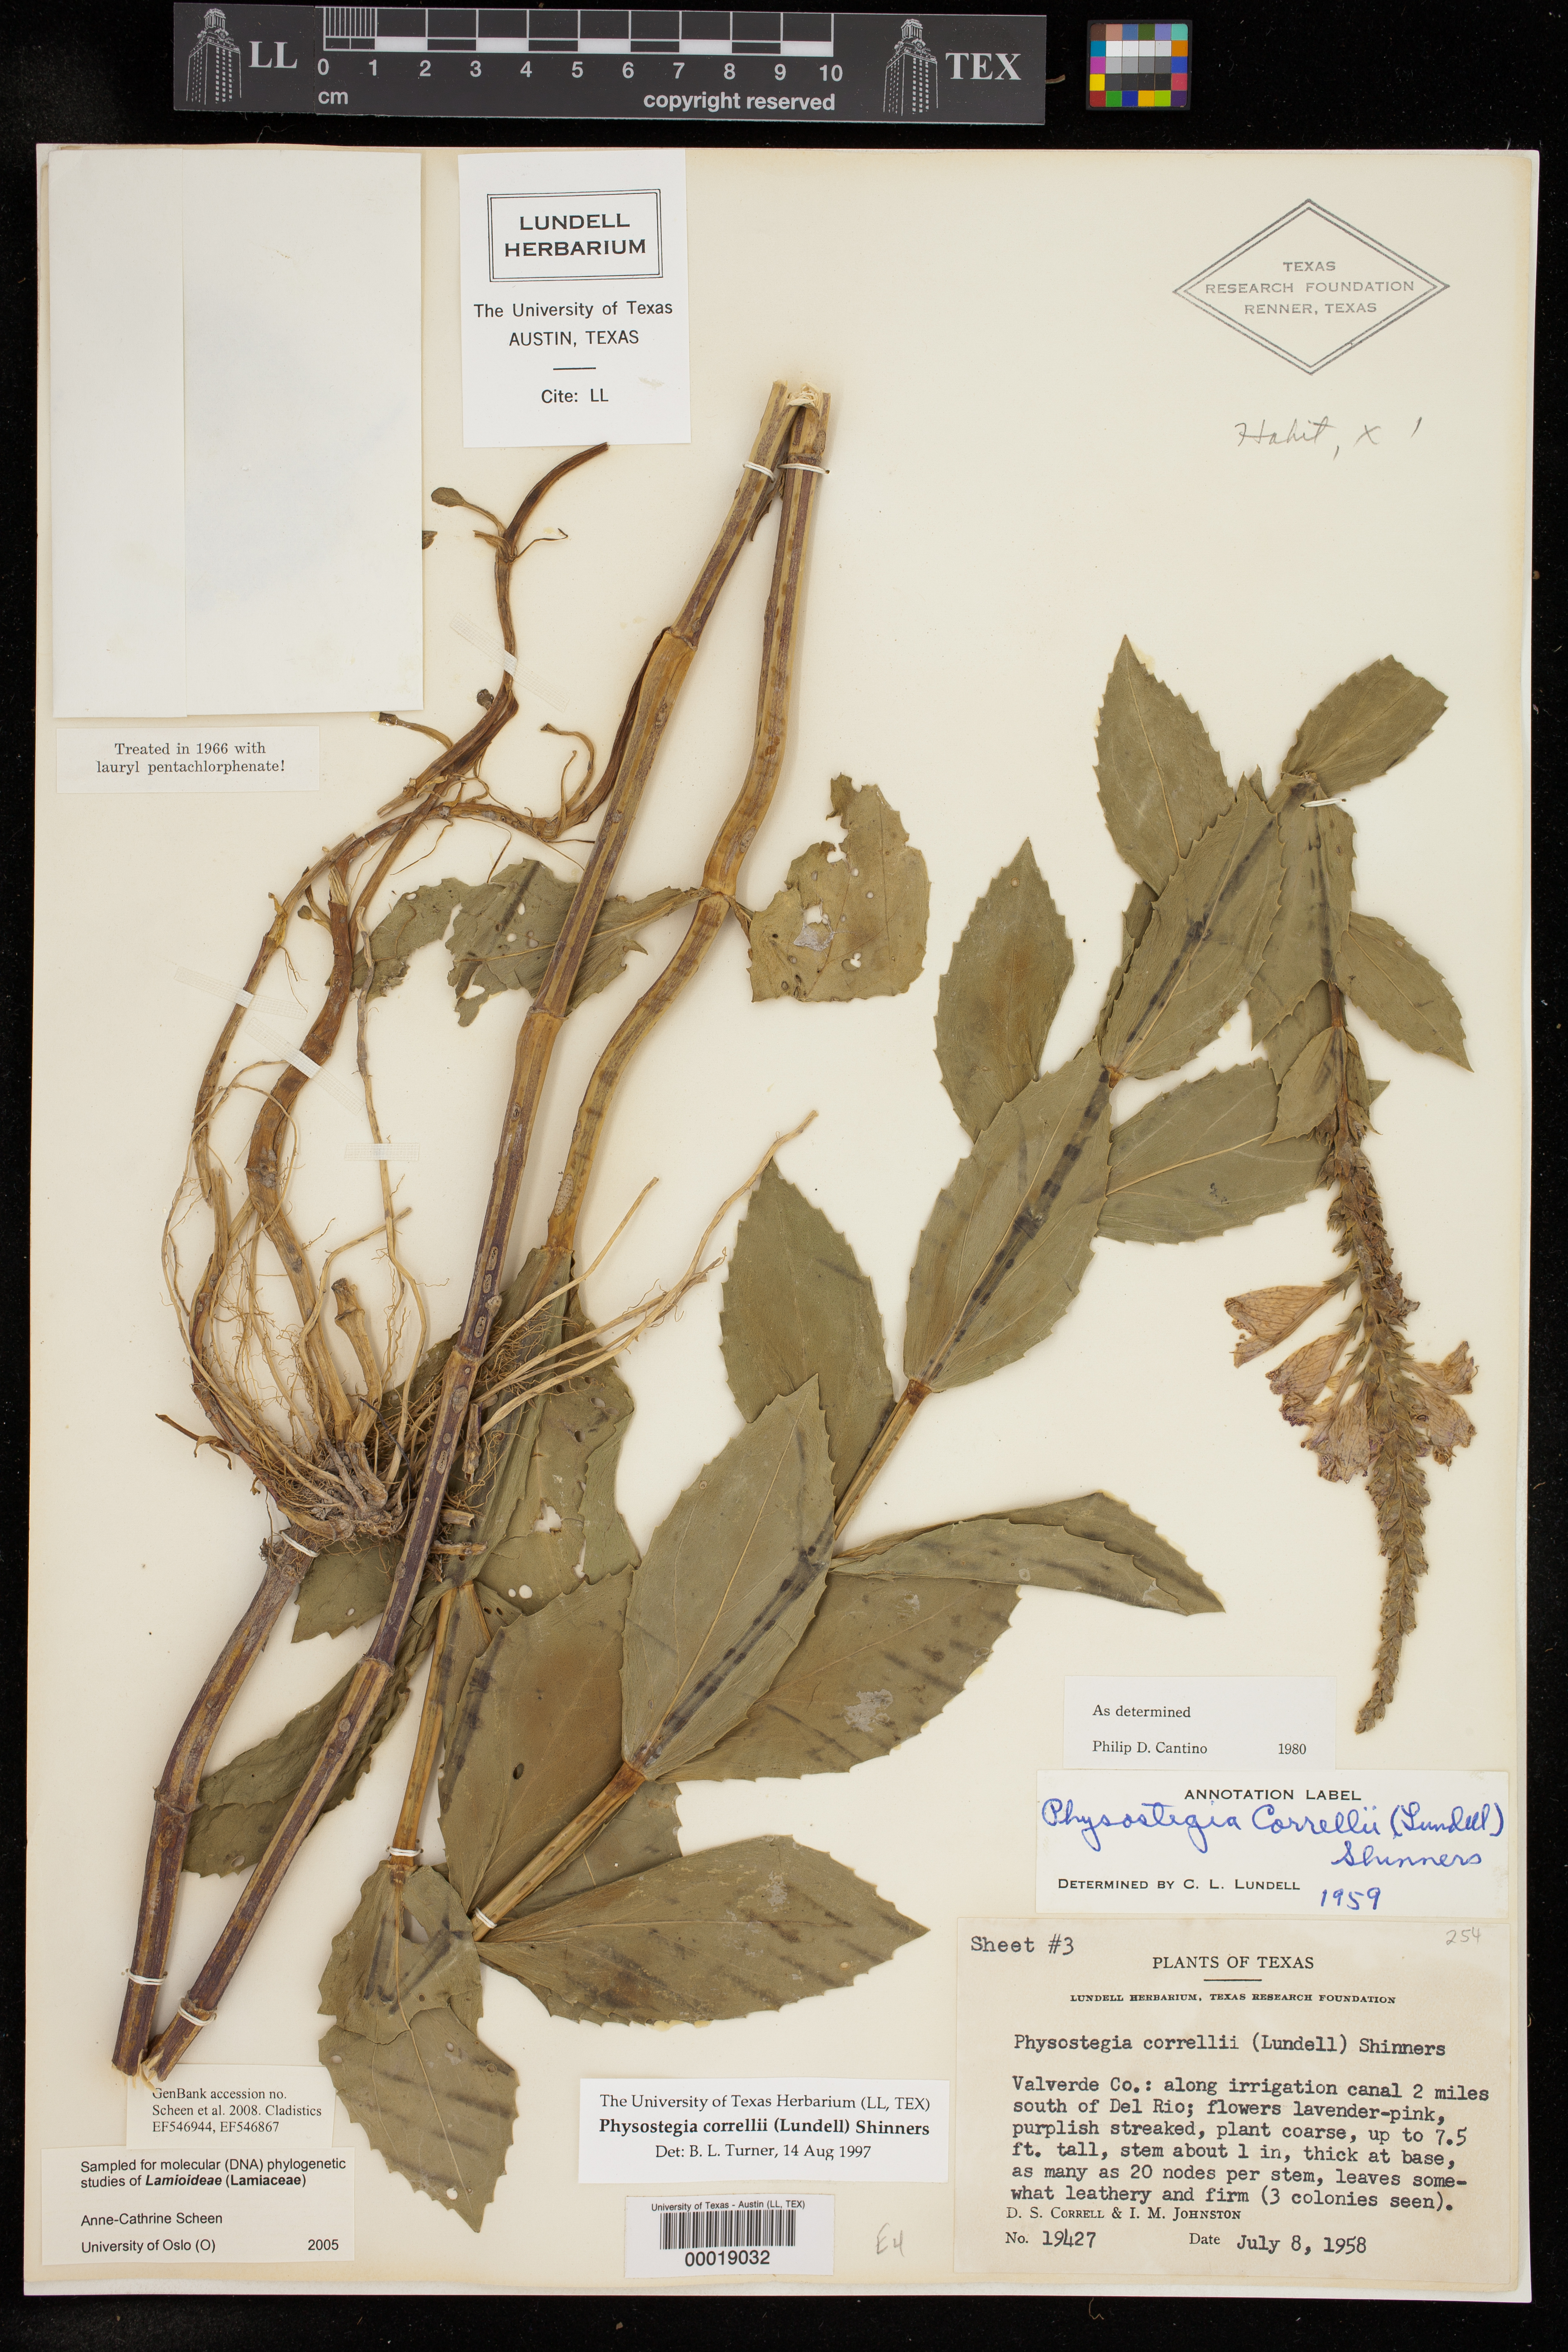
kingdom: Plantae
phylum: Tracheophyta
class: Magnoliopsida
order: Lamiales
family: Lamiaceae
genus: Physostegia
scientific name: Physostegia correllii
